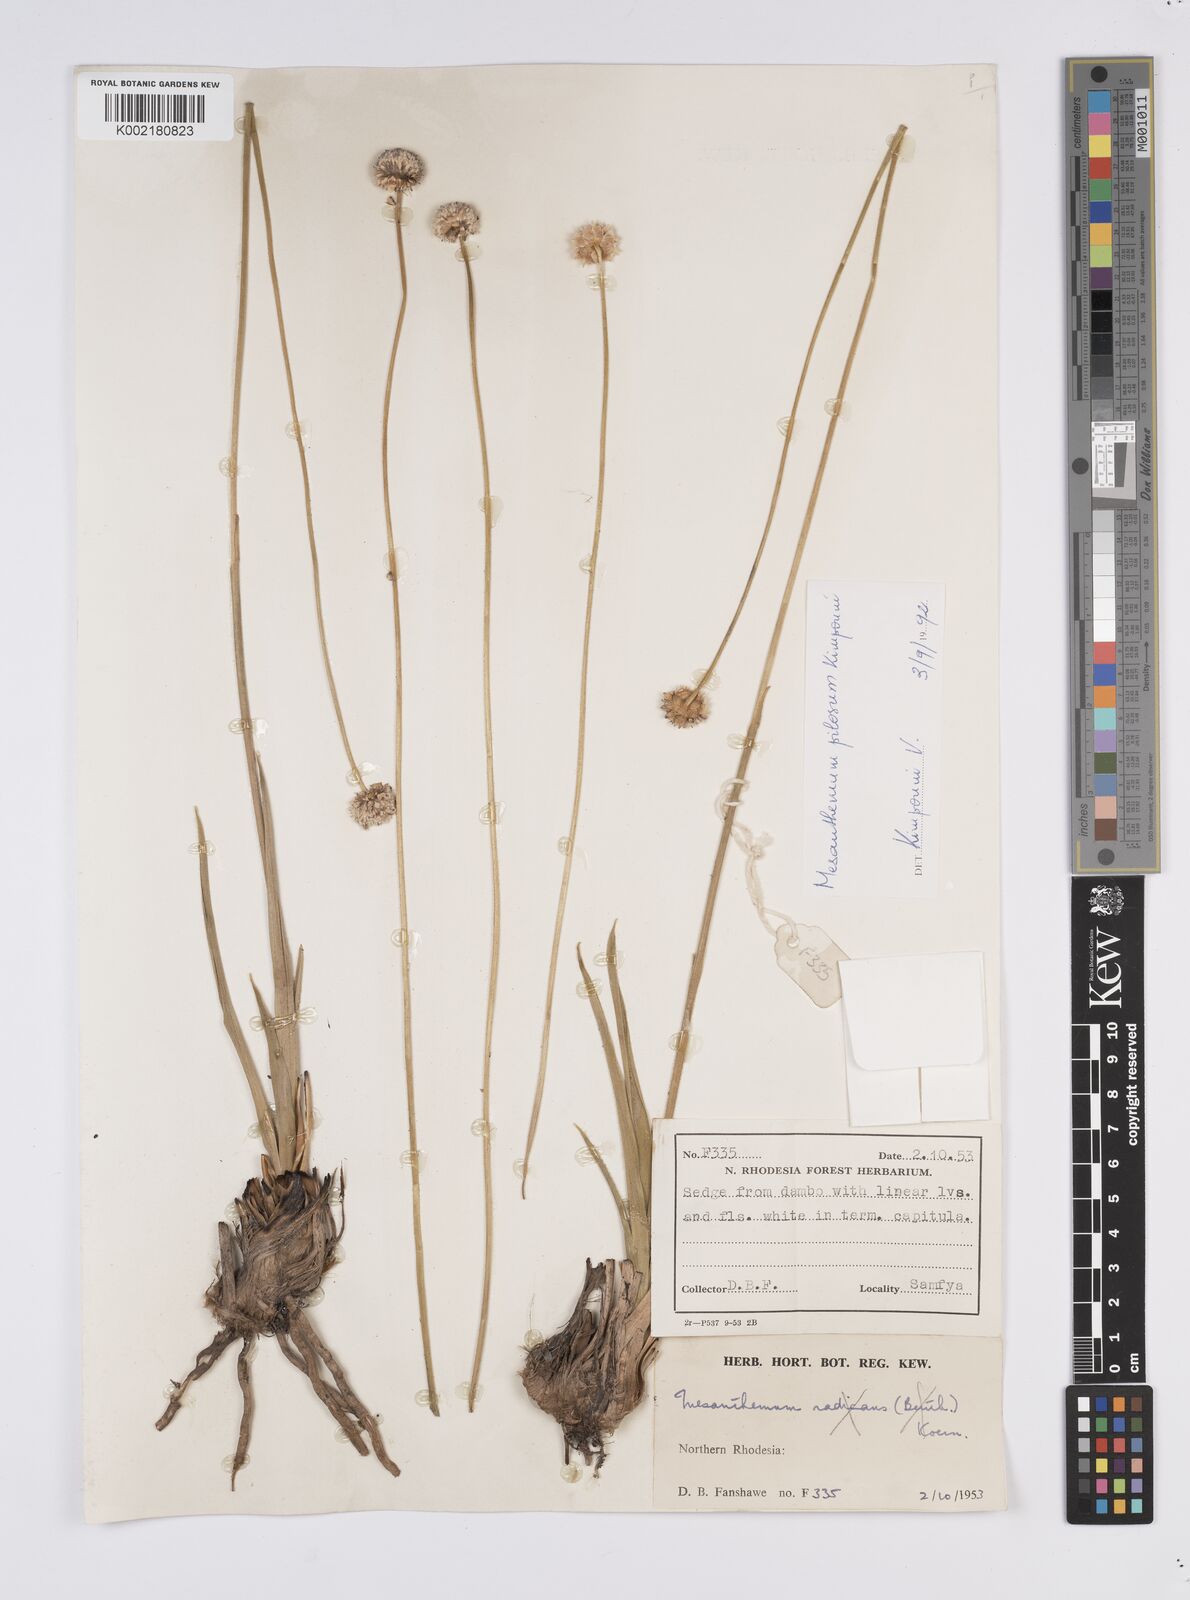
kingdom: Plantae
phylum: Tracheophyta
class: Liliopsida
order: Poales
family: Eriocaulaceae
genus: Mesanthemum
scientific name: Mesanthemum pilosum
